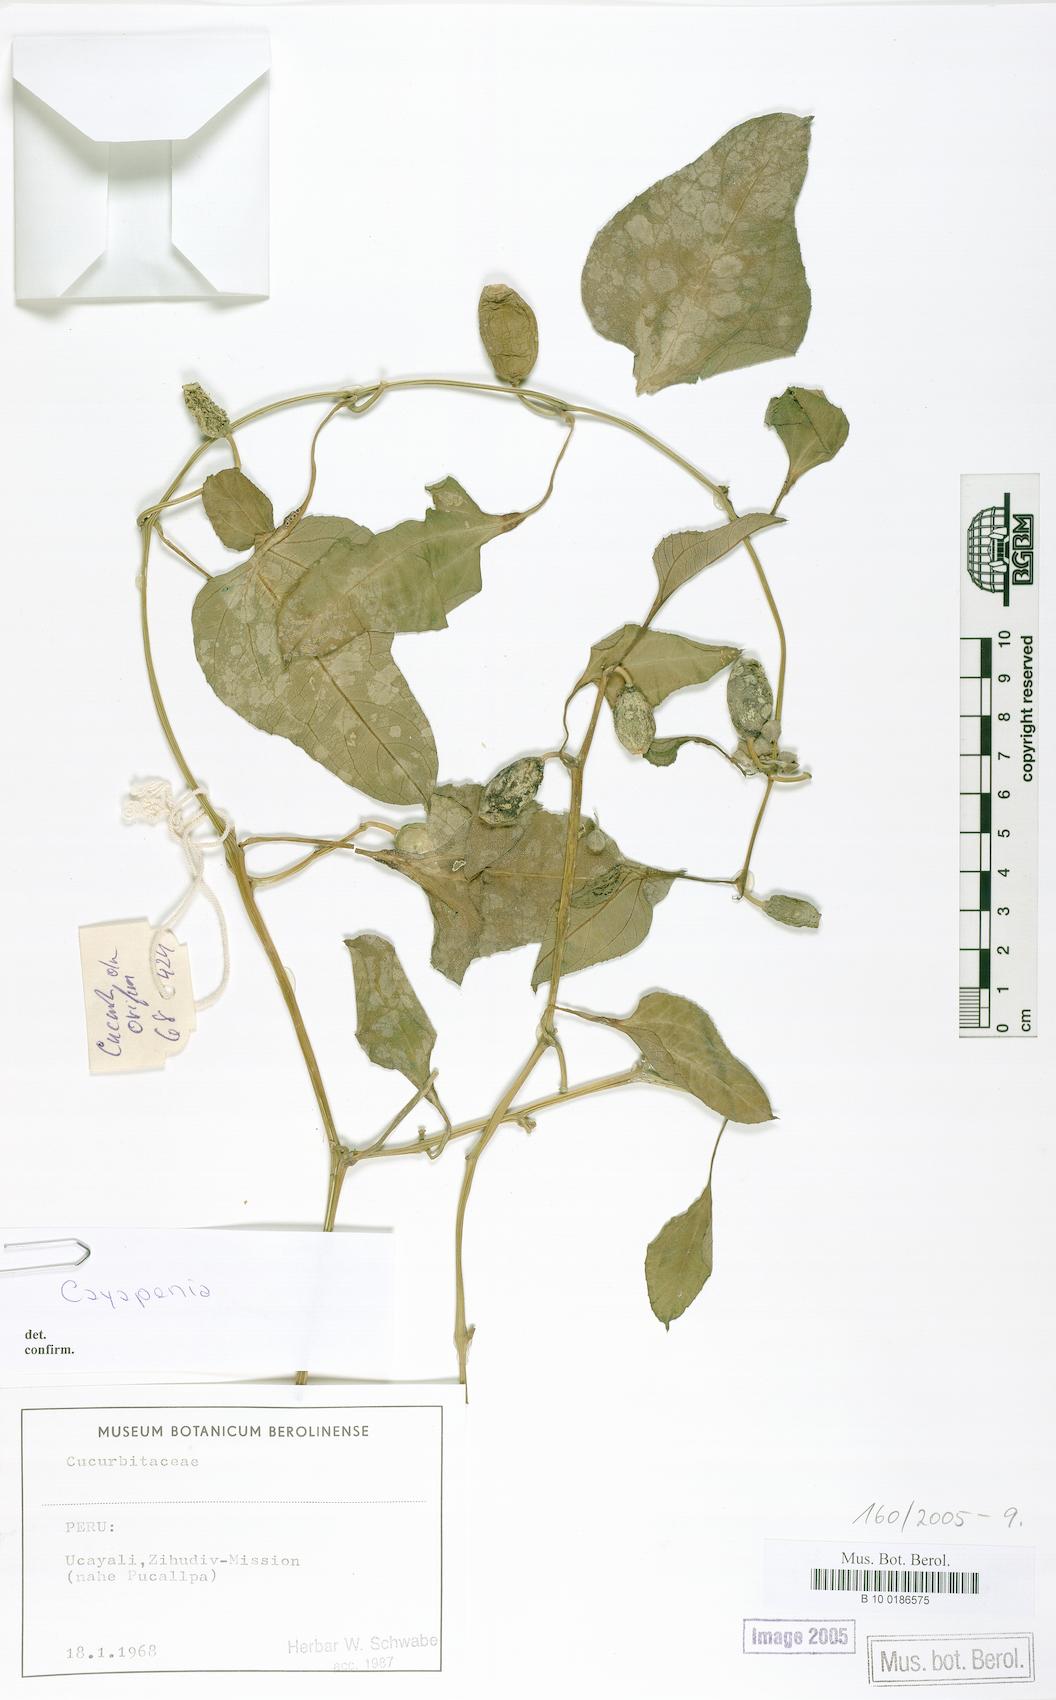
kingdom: Plantae
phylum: Tracheophyta
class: Magnoliopsida
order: Cucurbitales
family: Cucurbitaceae
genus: Cayaponia
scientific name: Cayaponia crugeri
